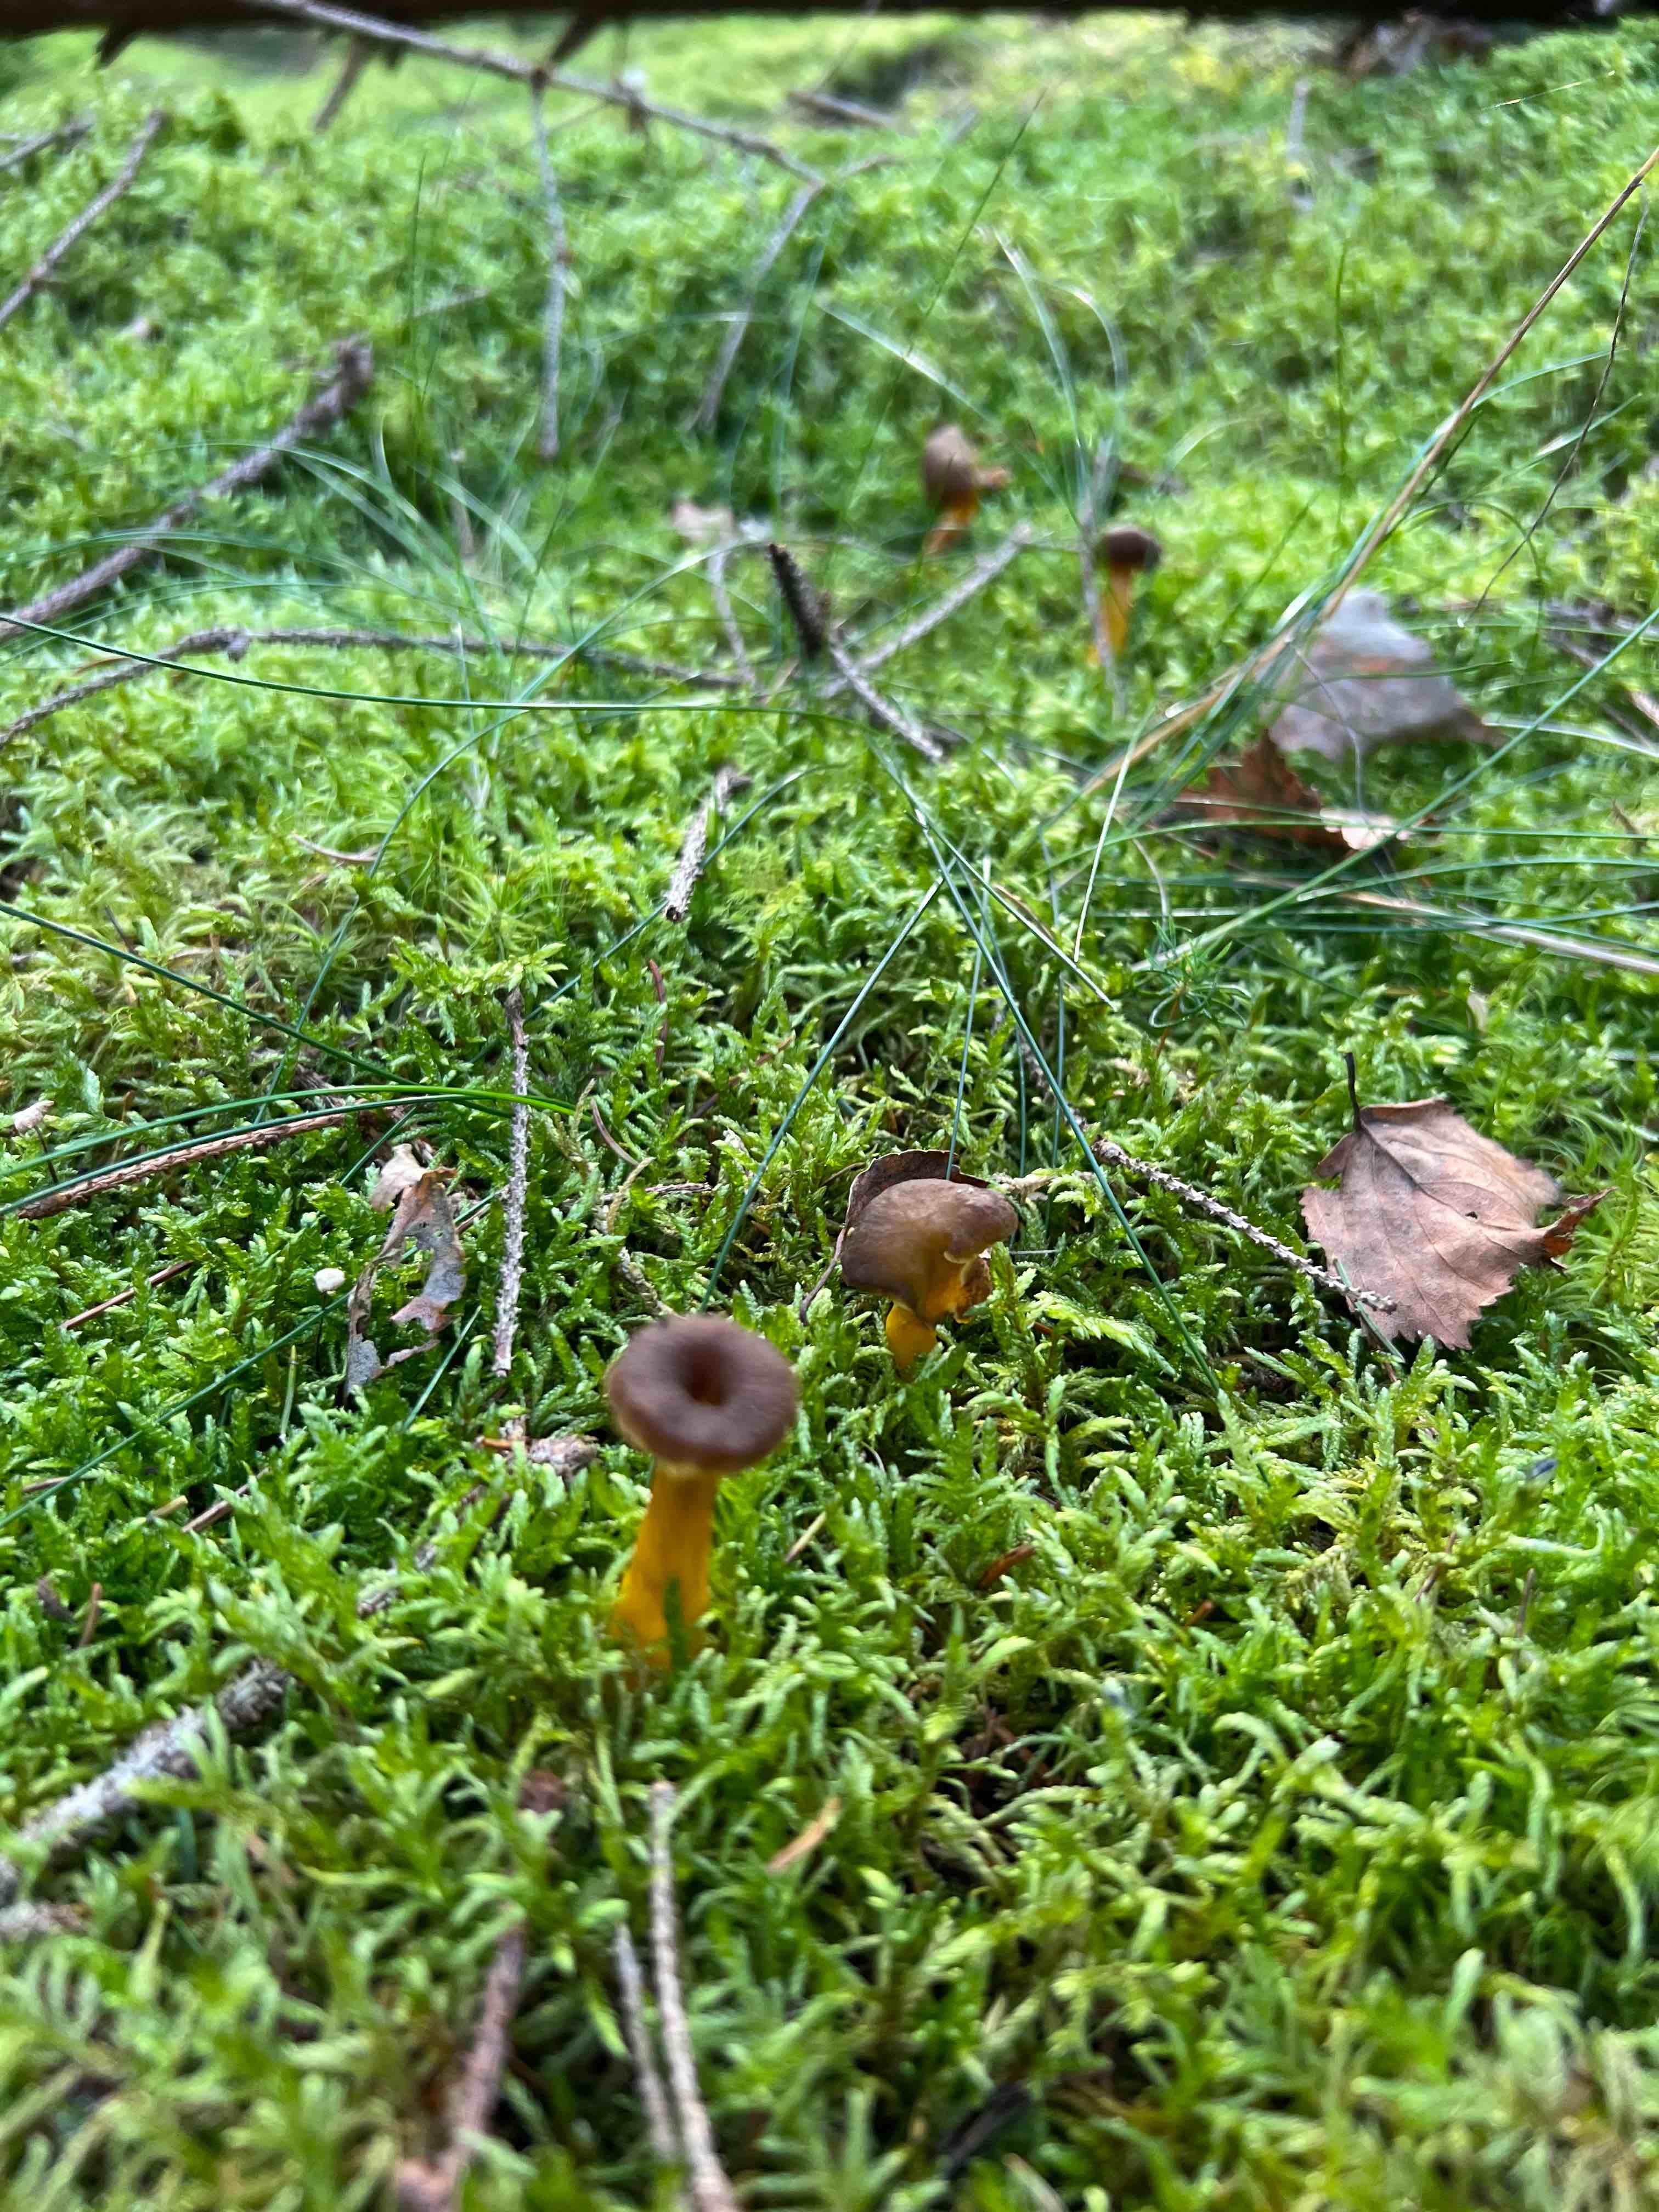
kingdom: Fungi
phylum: Basidiomycota
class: Agaricomycetes
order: Cantharellales
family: Hydnaceae
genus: Craterellus
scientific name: Craterellus tubaeformis
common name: tragt-kantarel
